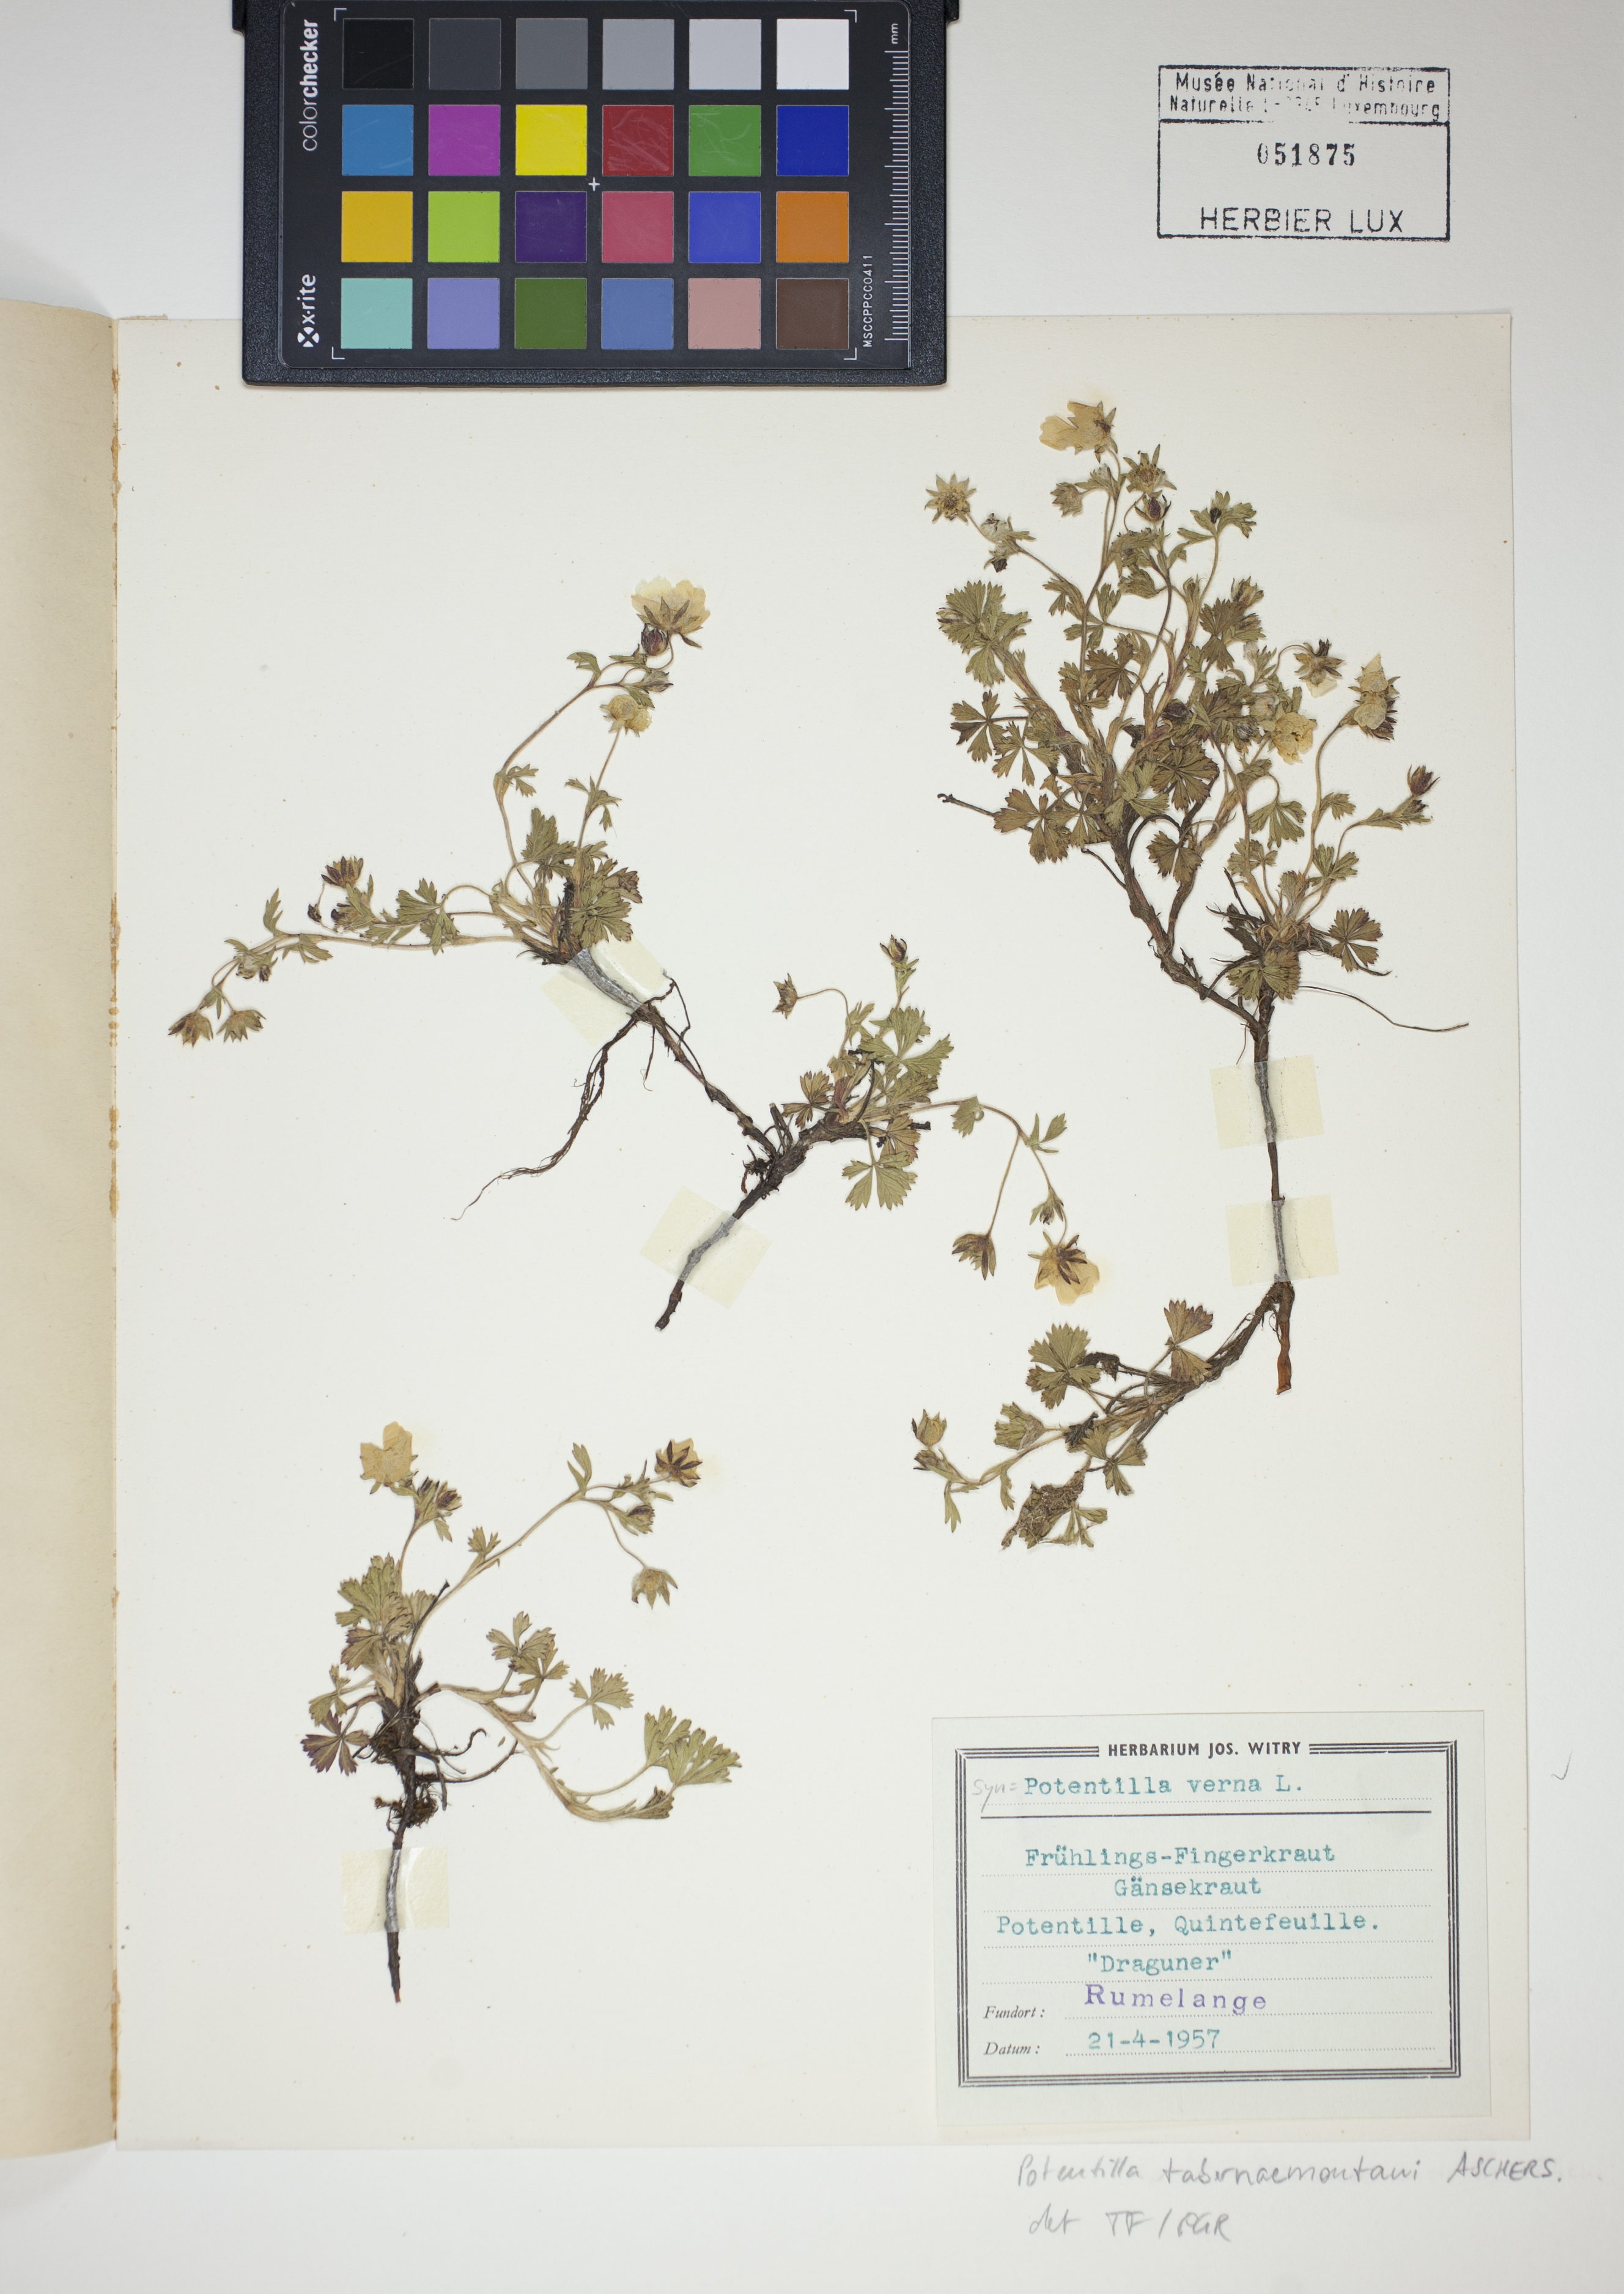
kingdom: Plantae
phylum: Tracheophyta
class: Magnoliopsida
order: Rosales
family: Rosaceae
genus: Potentilla
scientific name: Potentilla verna
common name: Spring cinquefoil
